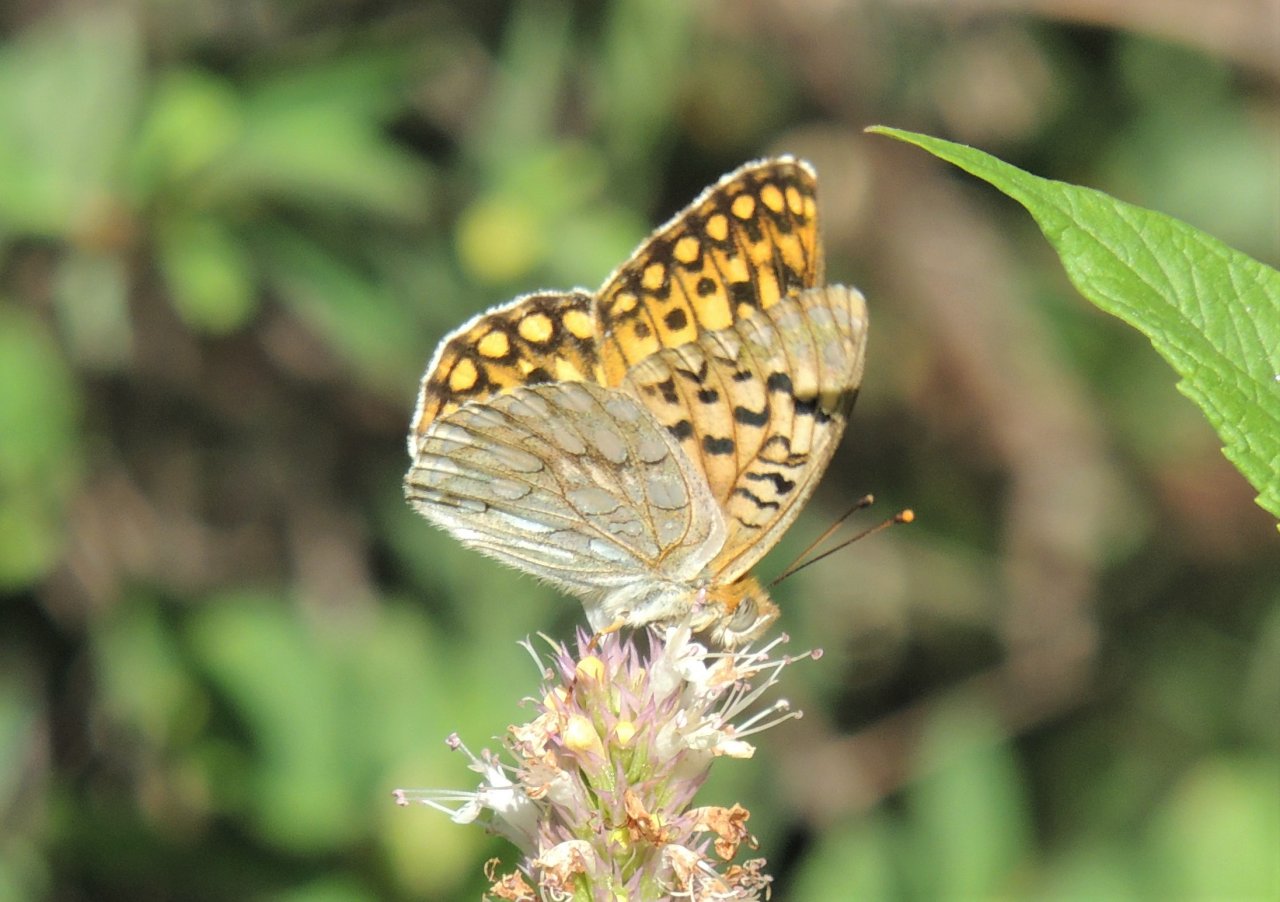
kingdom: Animalia
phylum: Arthropoda
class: Insecta
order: Lepidoptera
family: Nymphalidae
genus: Speyeria
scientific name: Speyeria callippe
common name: Callippe Fritillary
